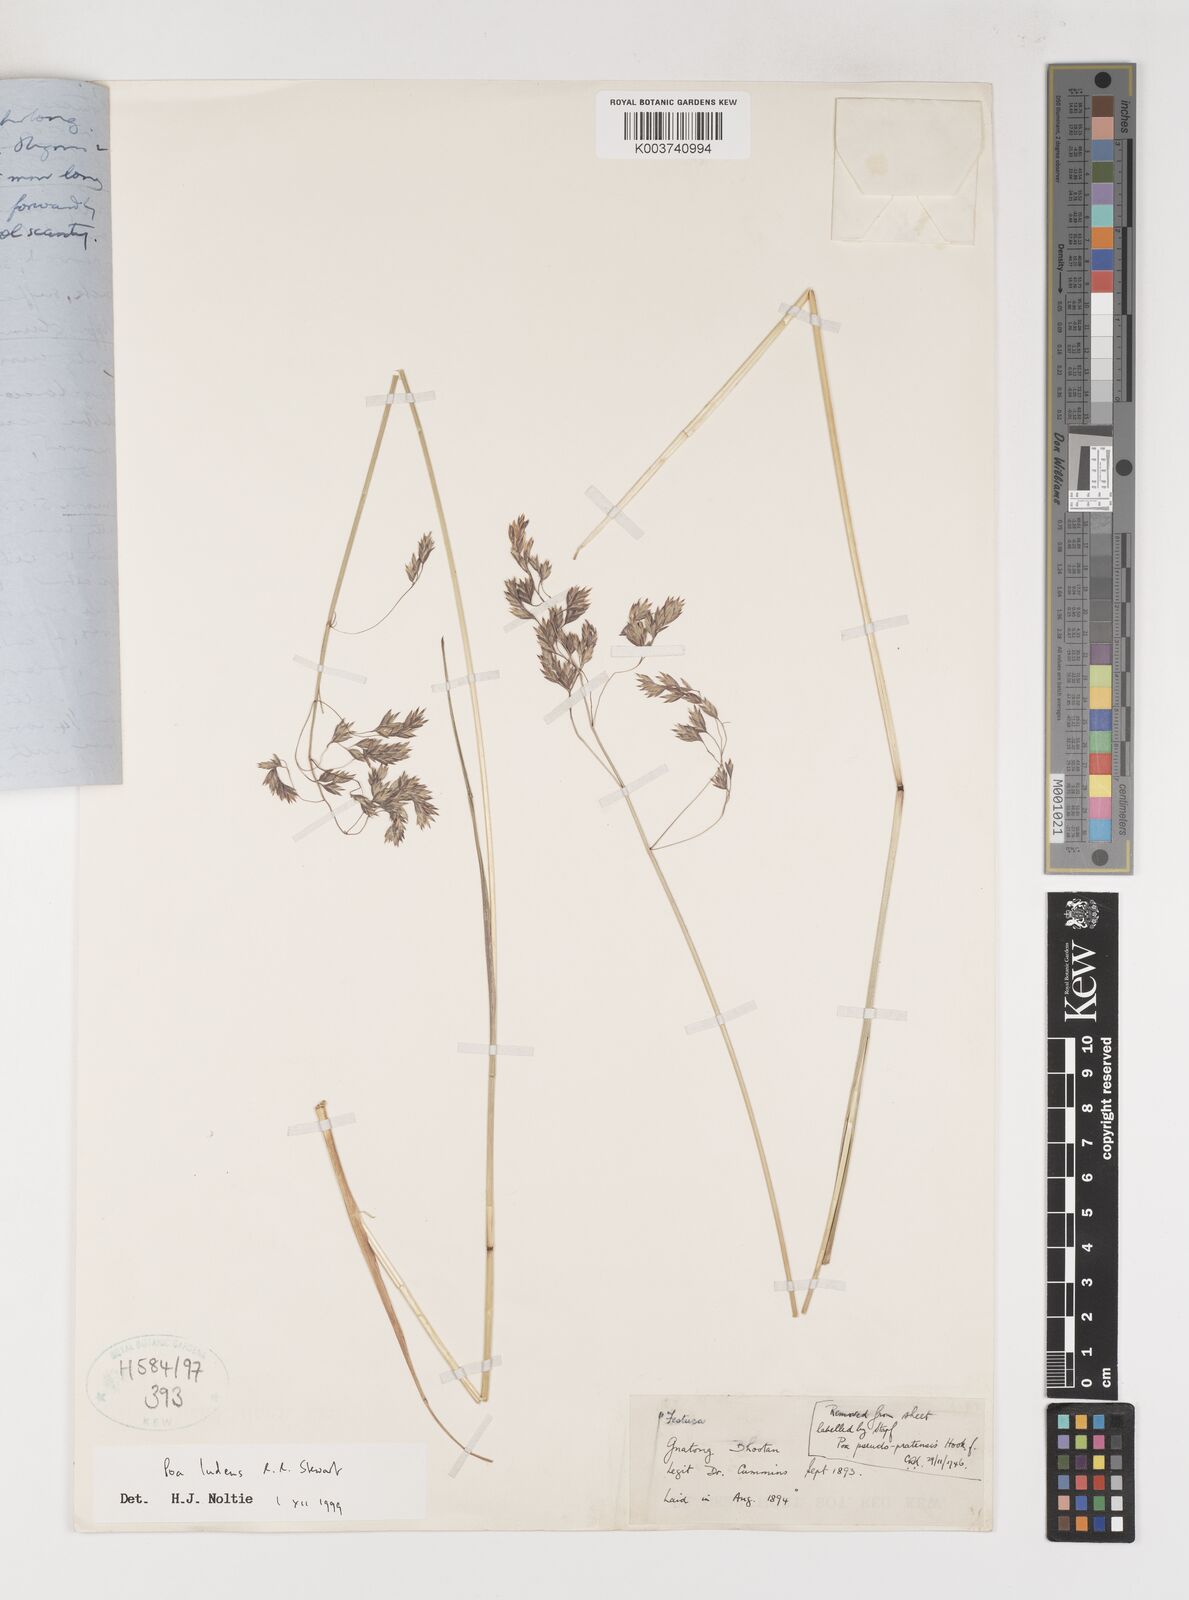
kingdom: Plantae
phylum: Tracheophyta
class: Liliopsida
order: Poales
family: Poaceae
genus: Poa
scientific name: Poa mairei
